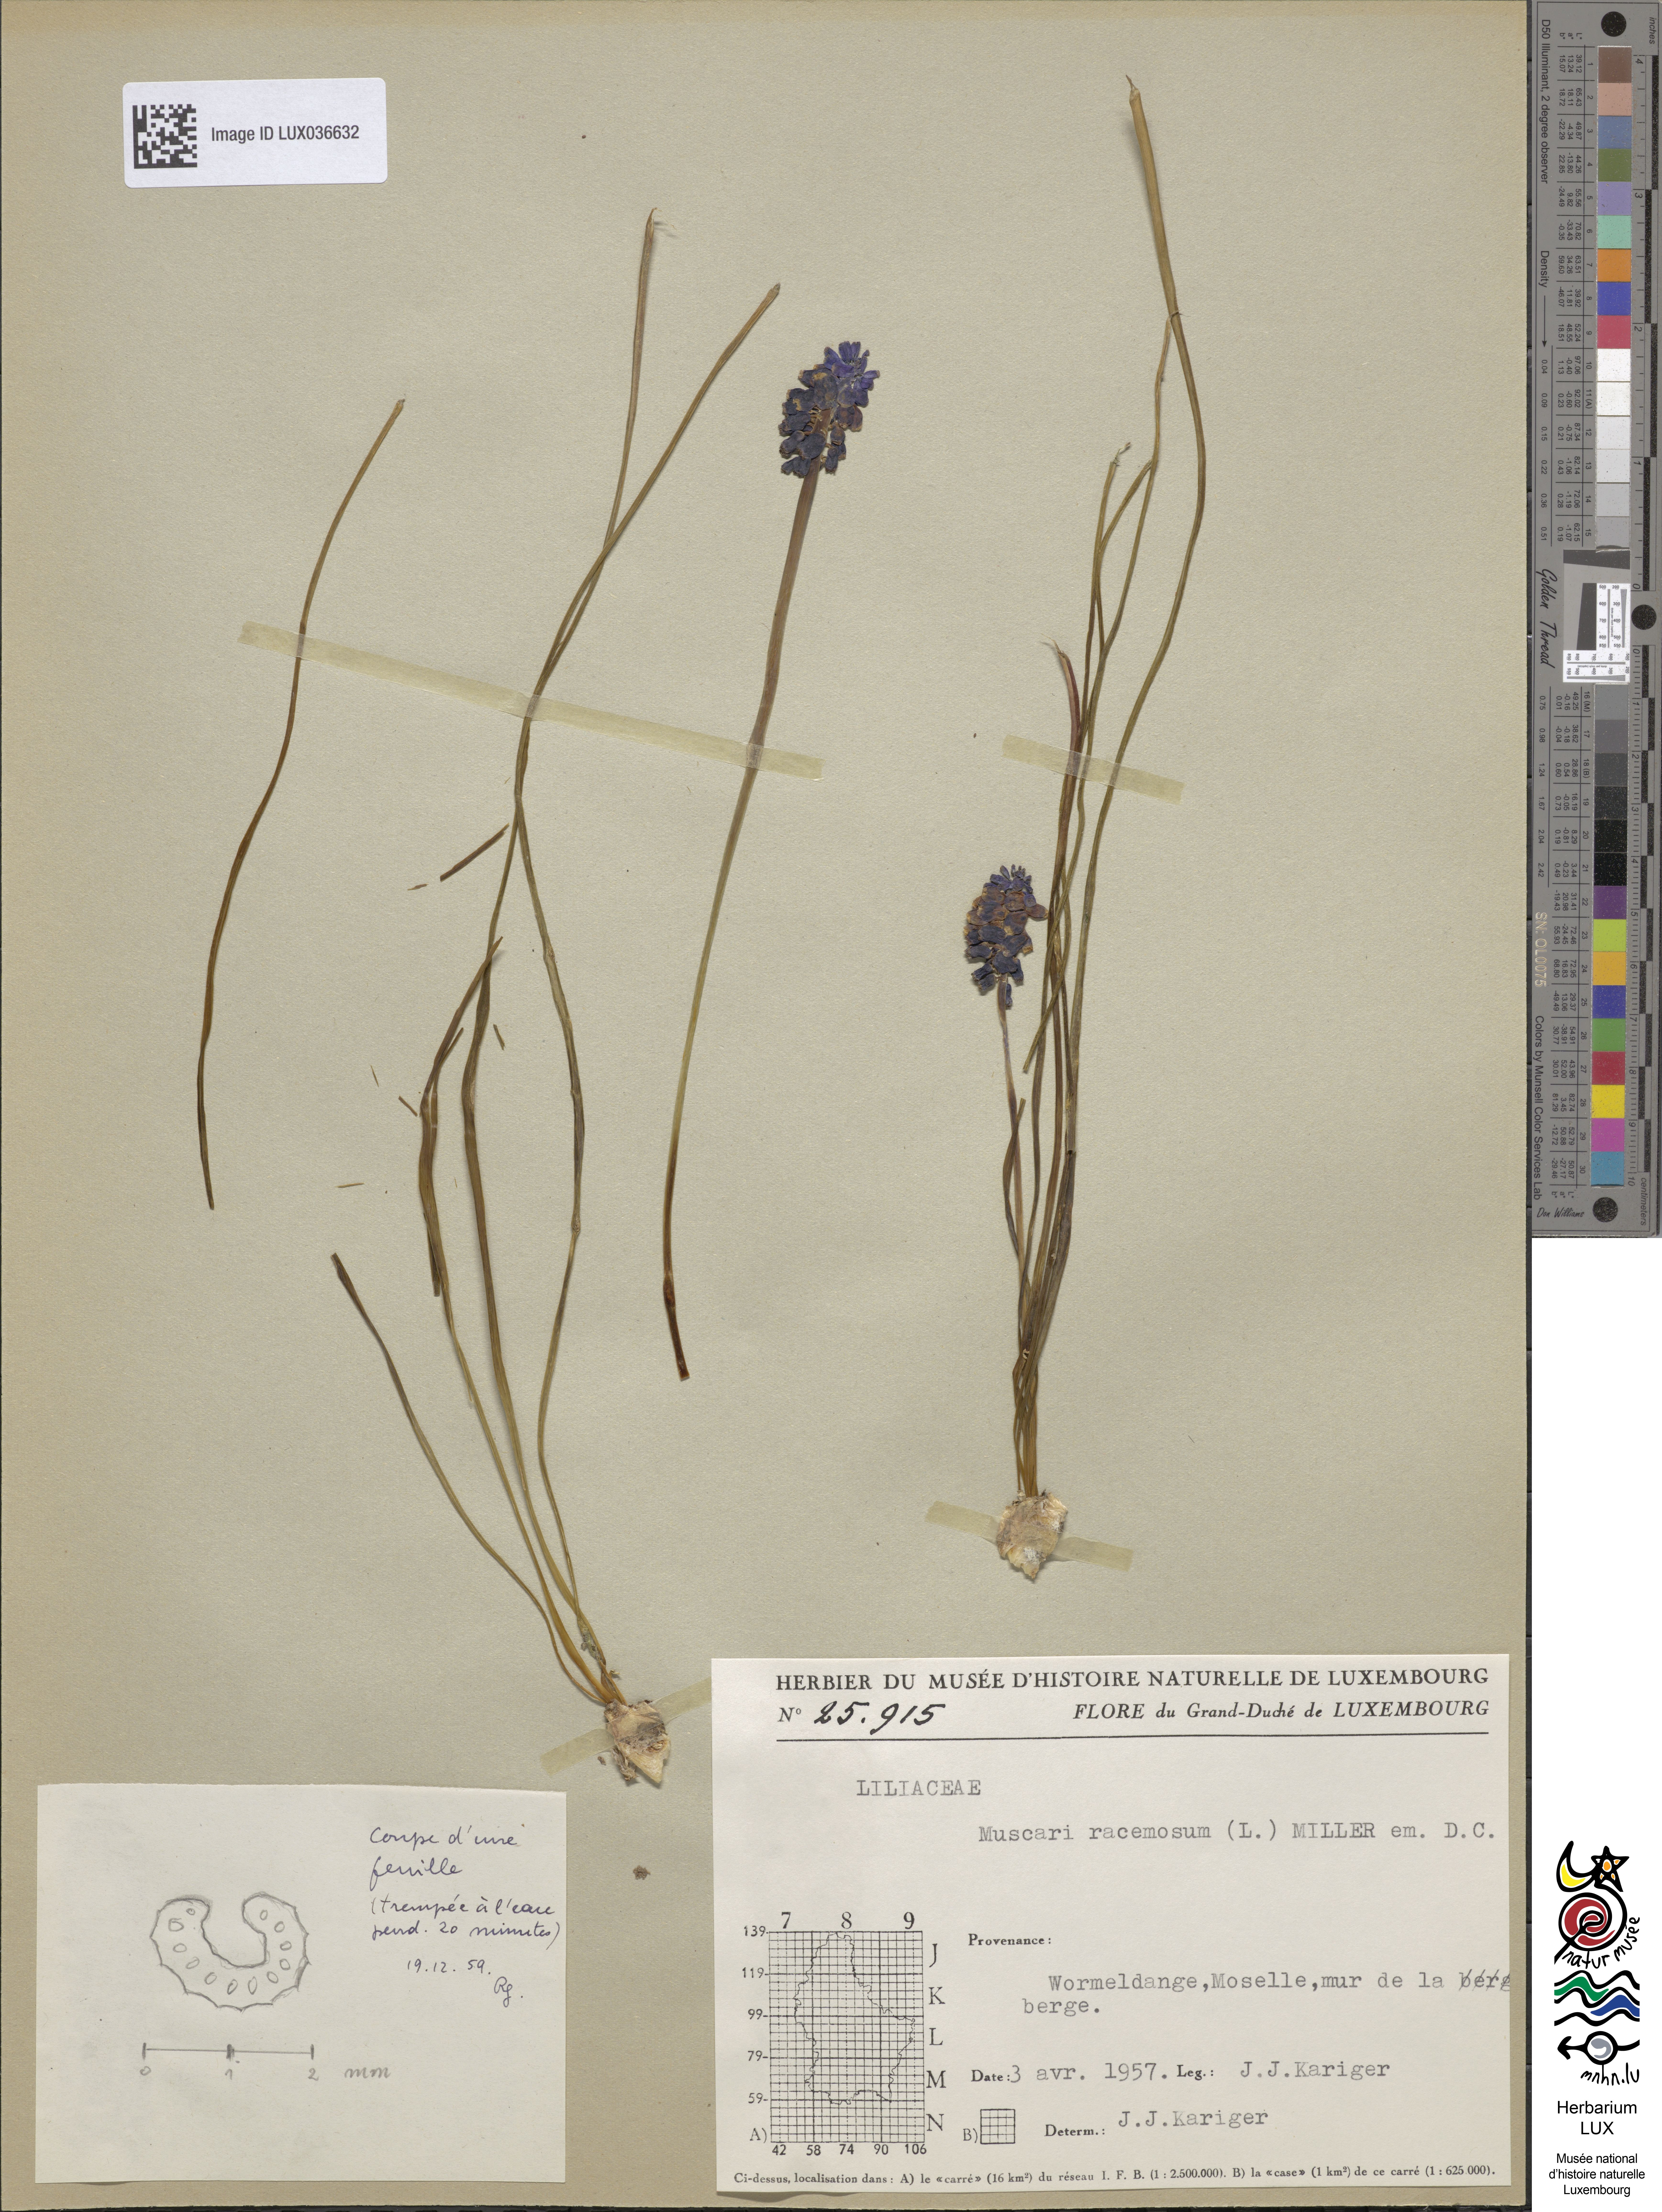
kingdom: Plantae
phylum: Tracheophyta
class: Liliopsida
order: Asparagales
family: Asparagaceae
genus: Muscari
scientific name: Muscari atlanticum
